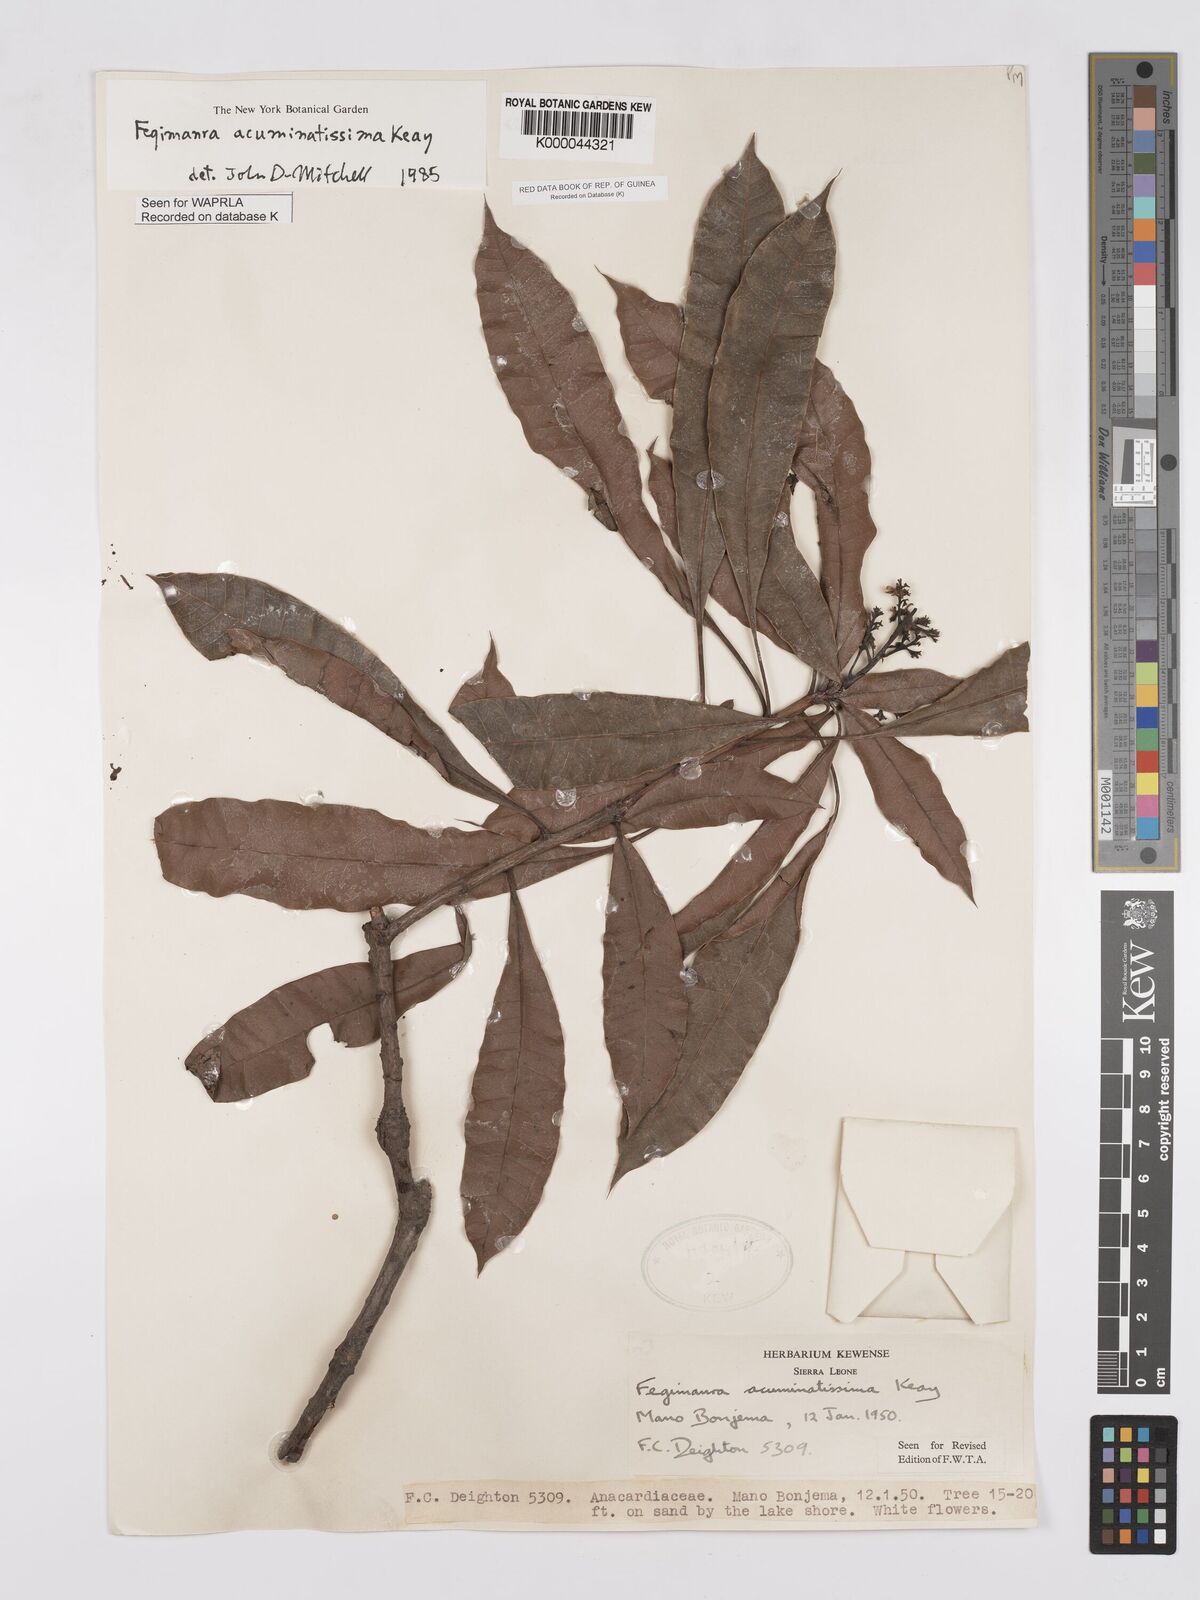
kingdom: Plantae
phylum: Tracheophyta
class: Magnoliopsida
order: Sapindales
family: Anacardiaceae
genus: Fegimanra
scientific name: Fegimanra acuminatissima
